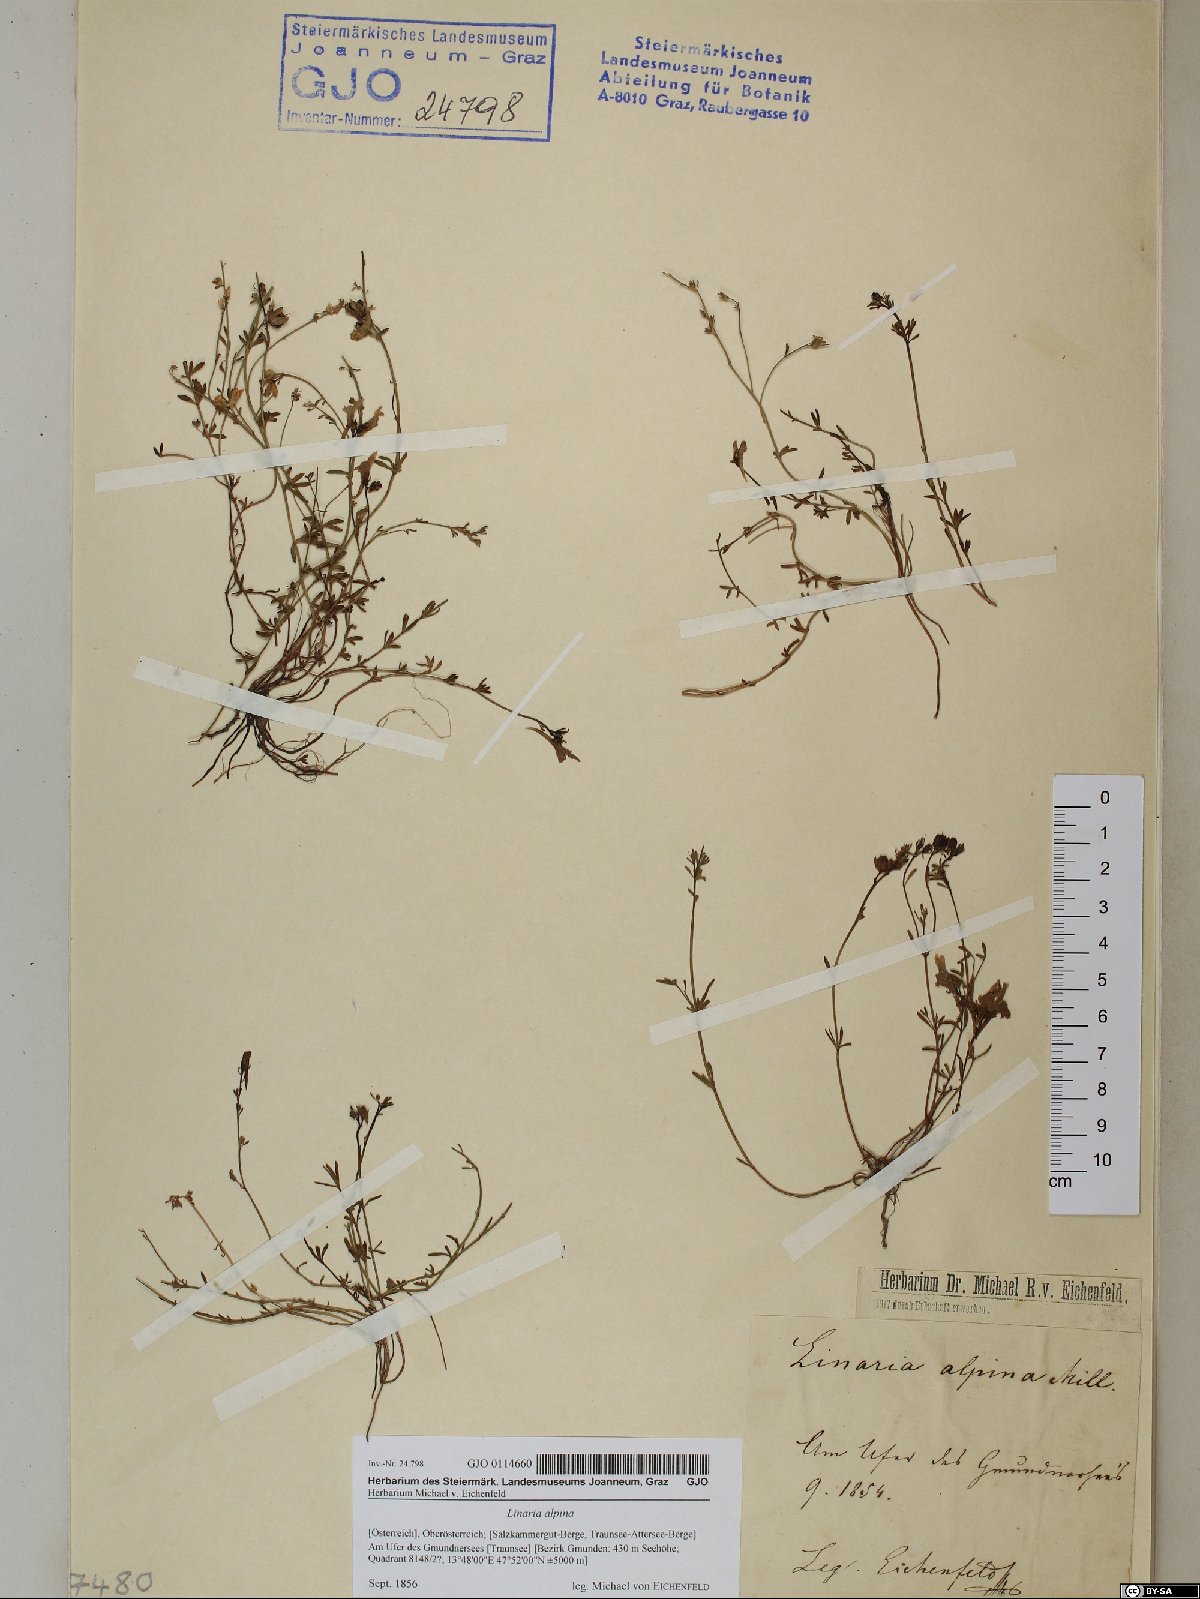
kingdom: Plantae
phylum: Tracheophyta
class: Magnoliopsida
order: Lamiales
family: Plantaginaceae
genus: Linaria
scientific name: Linaria alpina
